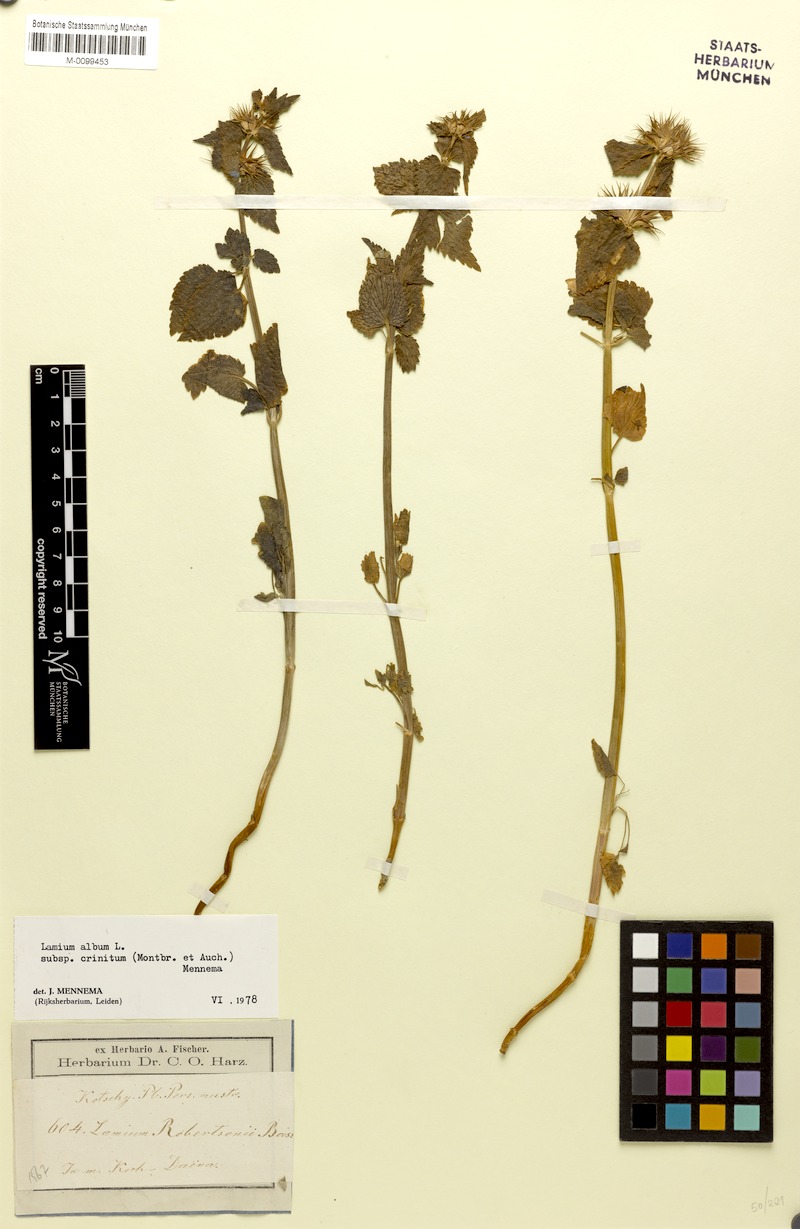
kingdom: Plantae
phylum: Tracheophyta
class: Magnoliopsida
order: Lamiales
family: Lamiaceae
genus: Lamium
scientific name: Lamium album
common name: White dead-nettle
